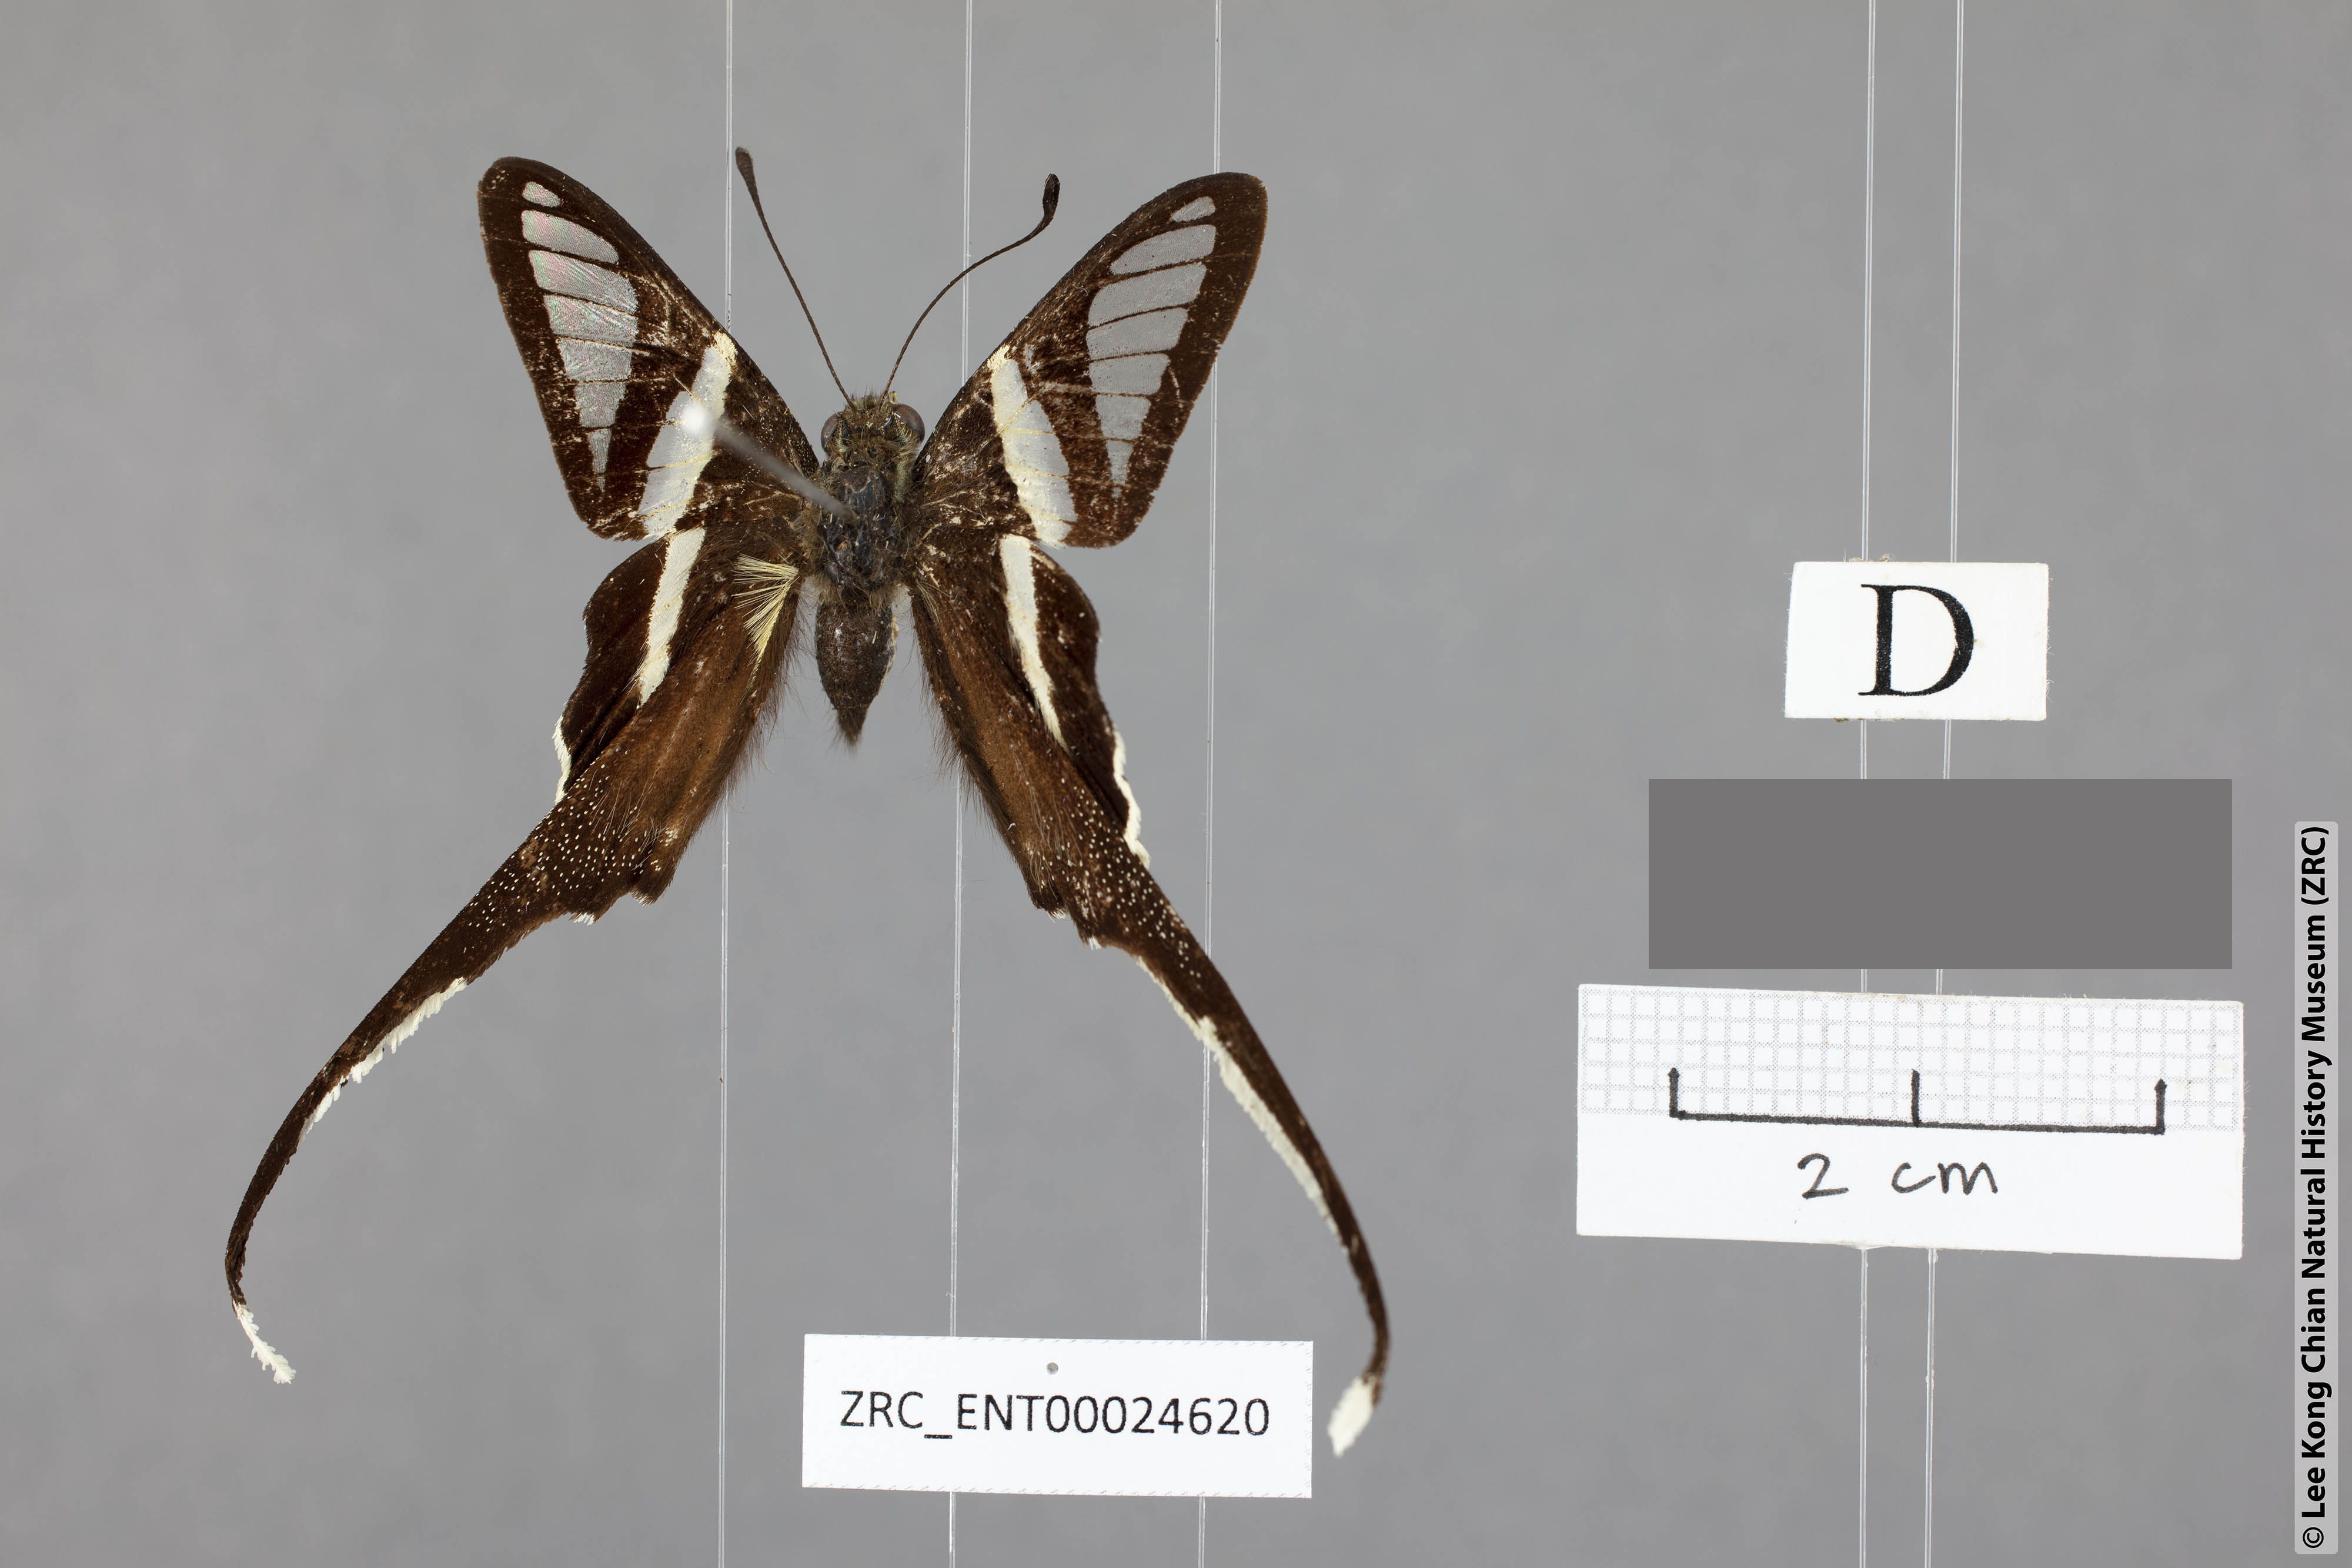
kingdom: Animalia
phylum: Arthropoda
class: Insecta
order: Lepidoptera
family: Papilionidae
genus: Lamproptera
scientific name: Lamproptera curius
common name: White dragontail
